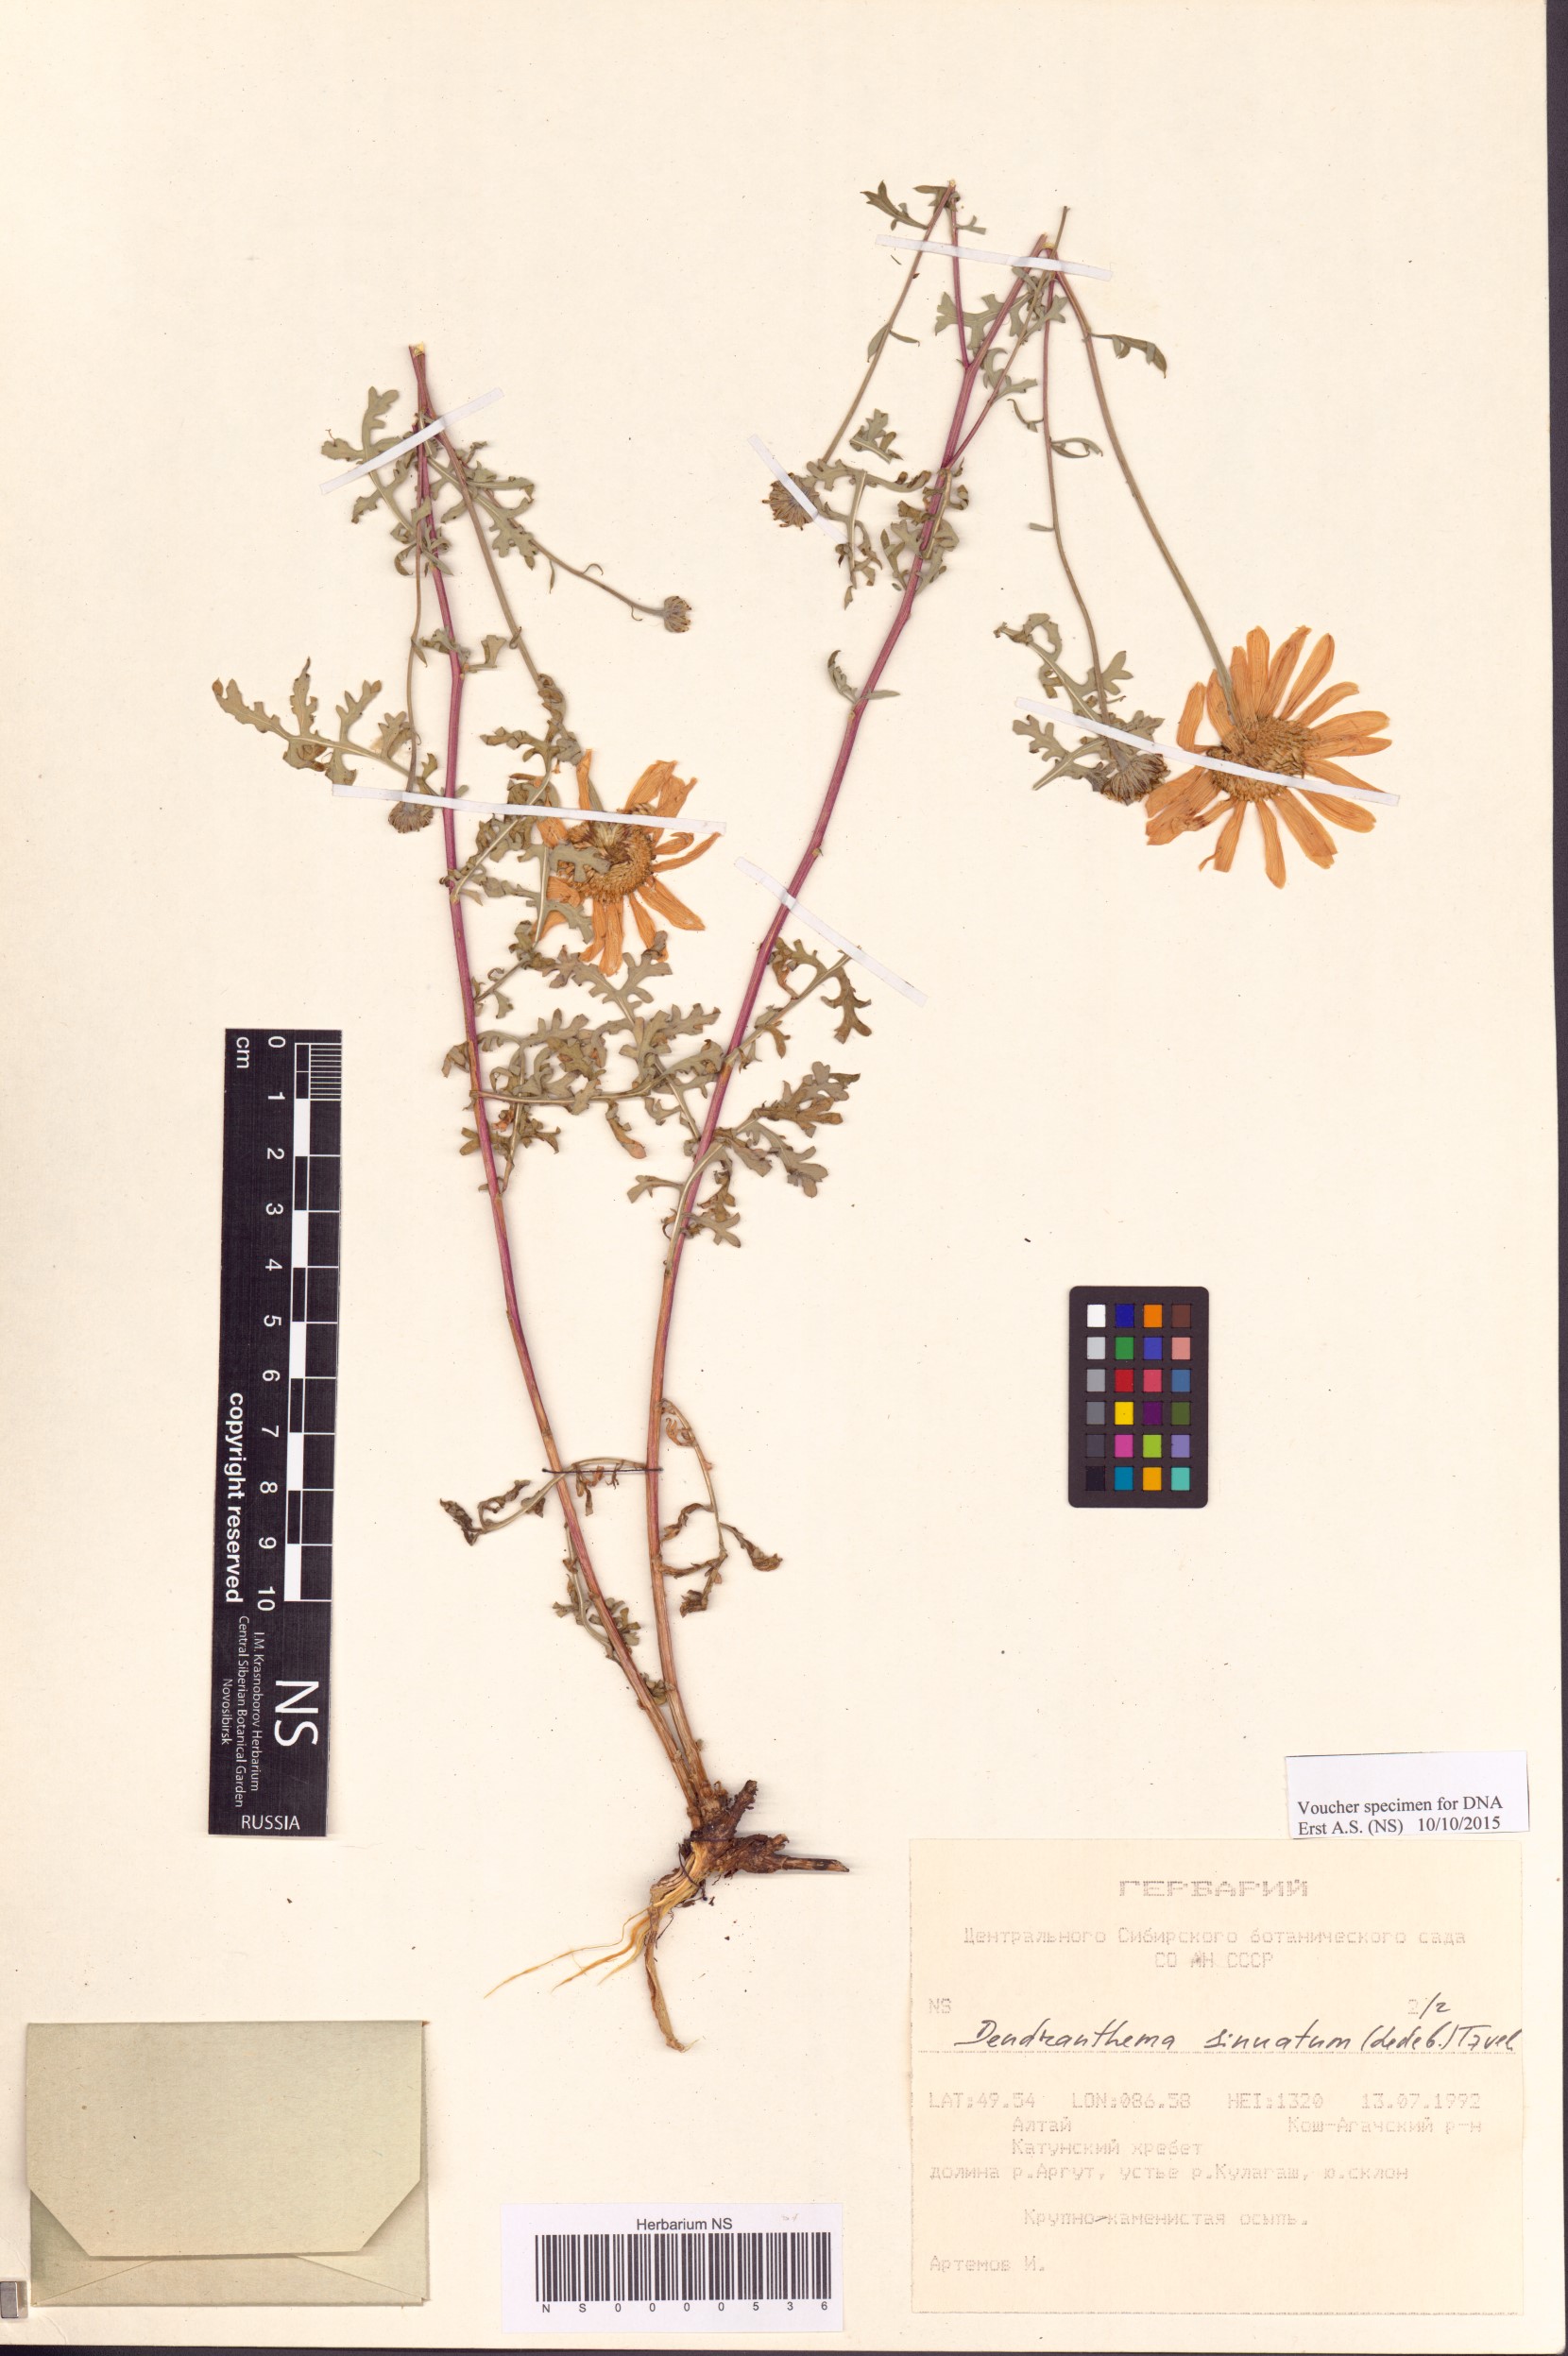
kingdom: Plantae
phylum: Tracheophyta
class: Magnoliopsida
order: Asterales
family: Asteraceae
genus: Chrysanthemum
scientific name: Chrysanthemum sinuatum
